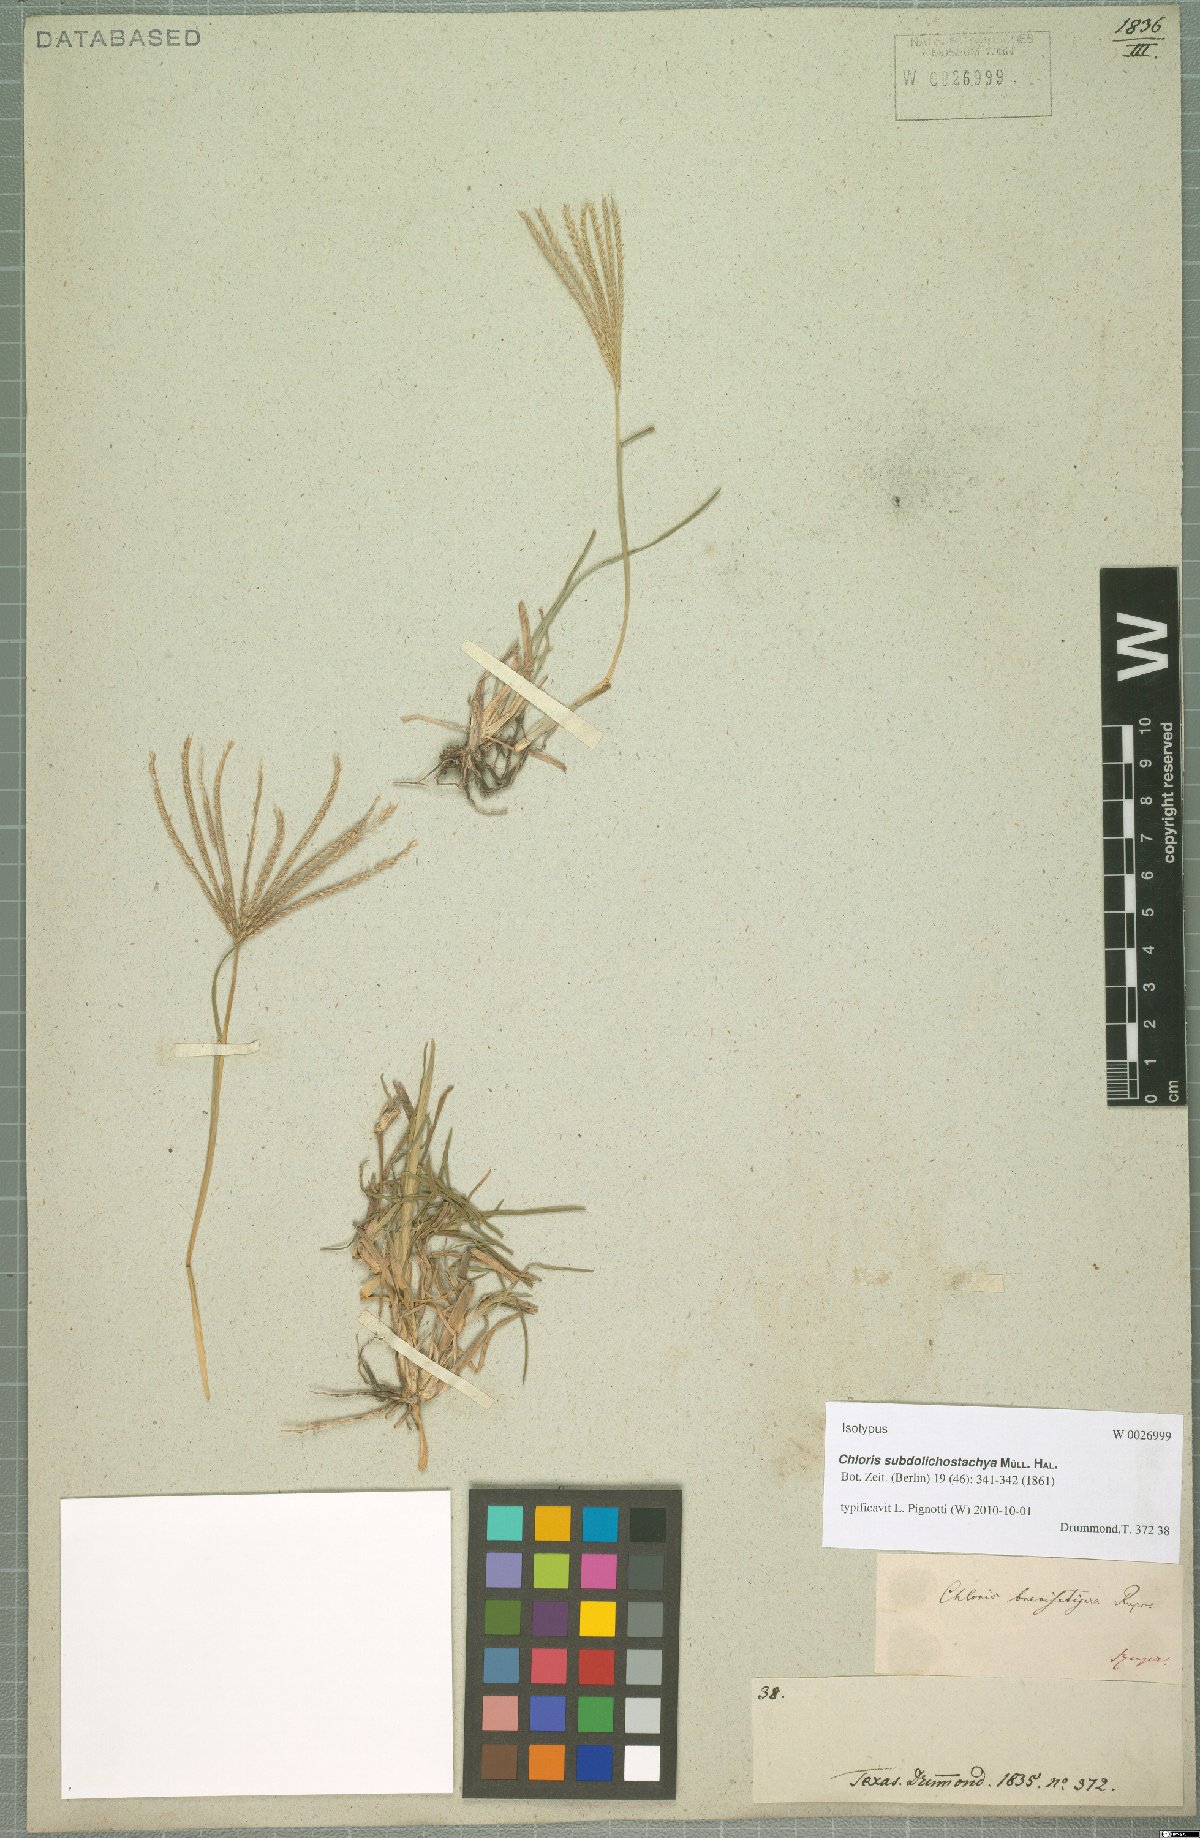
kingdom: Plantae
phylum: Tracheophyta
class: Liliopsida
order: Poales
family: Poaceae
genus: Chloris
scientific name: Chloris subdolichostachya
